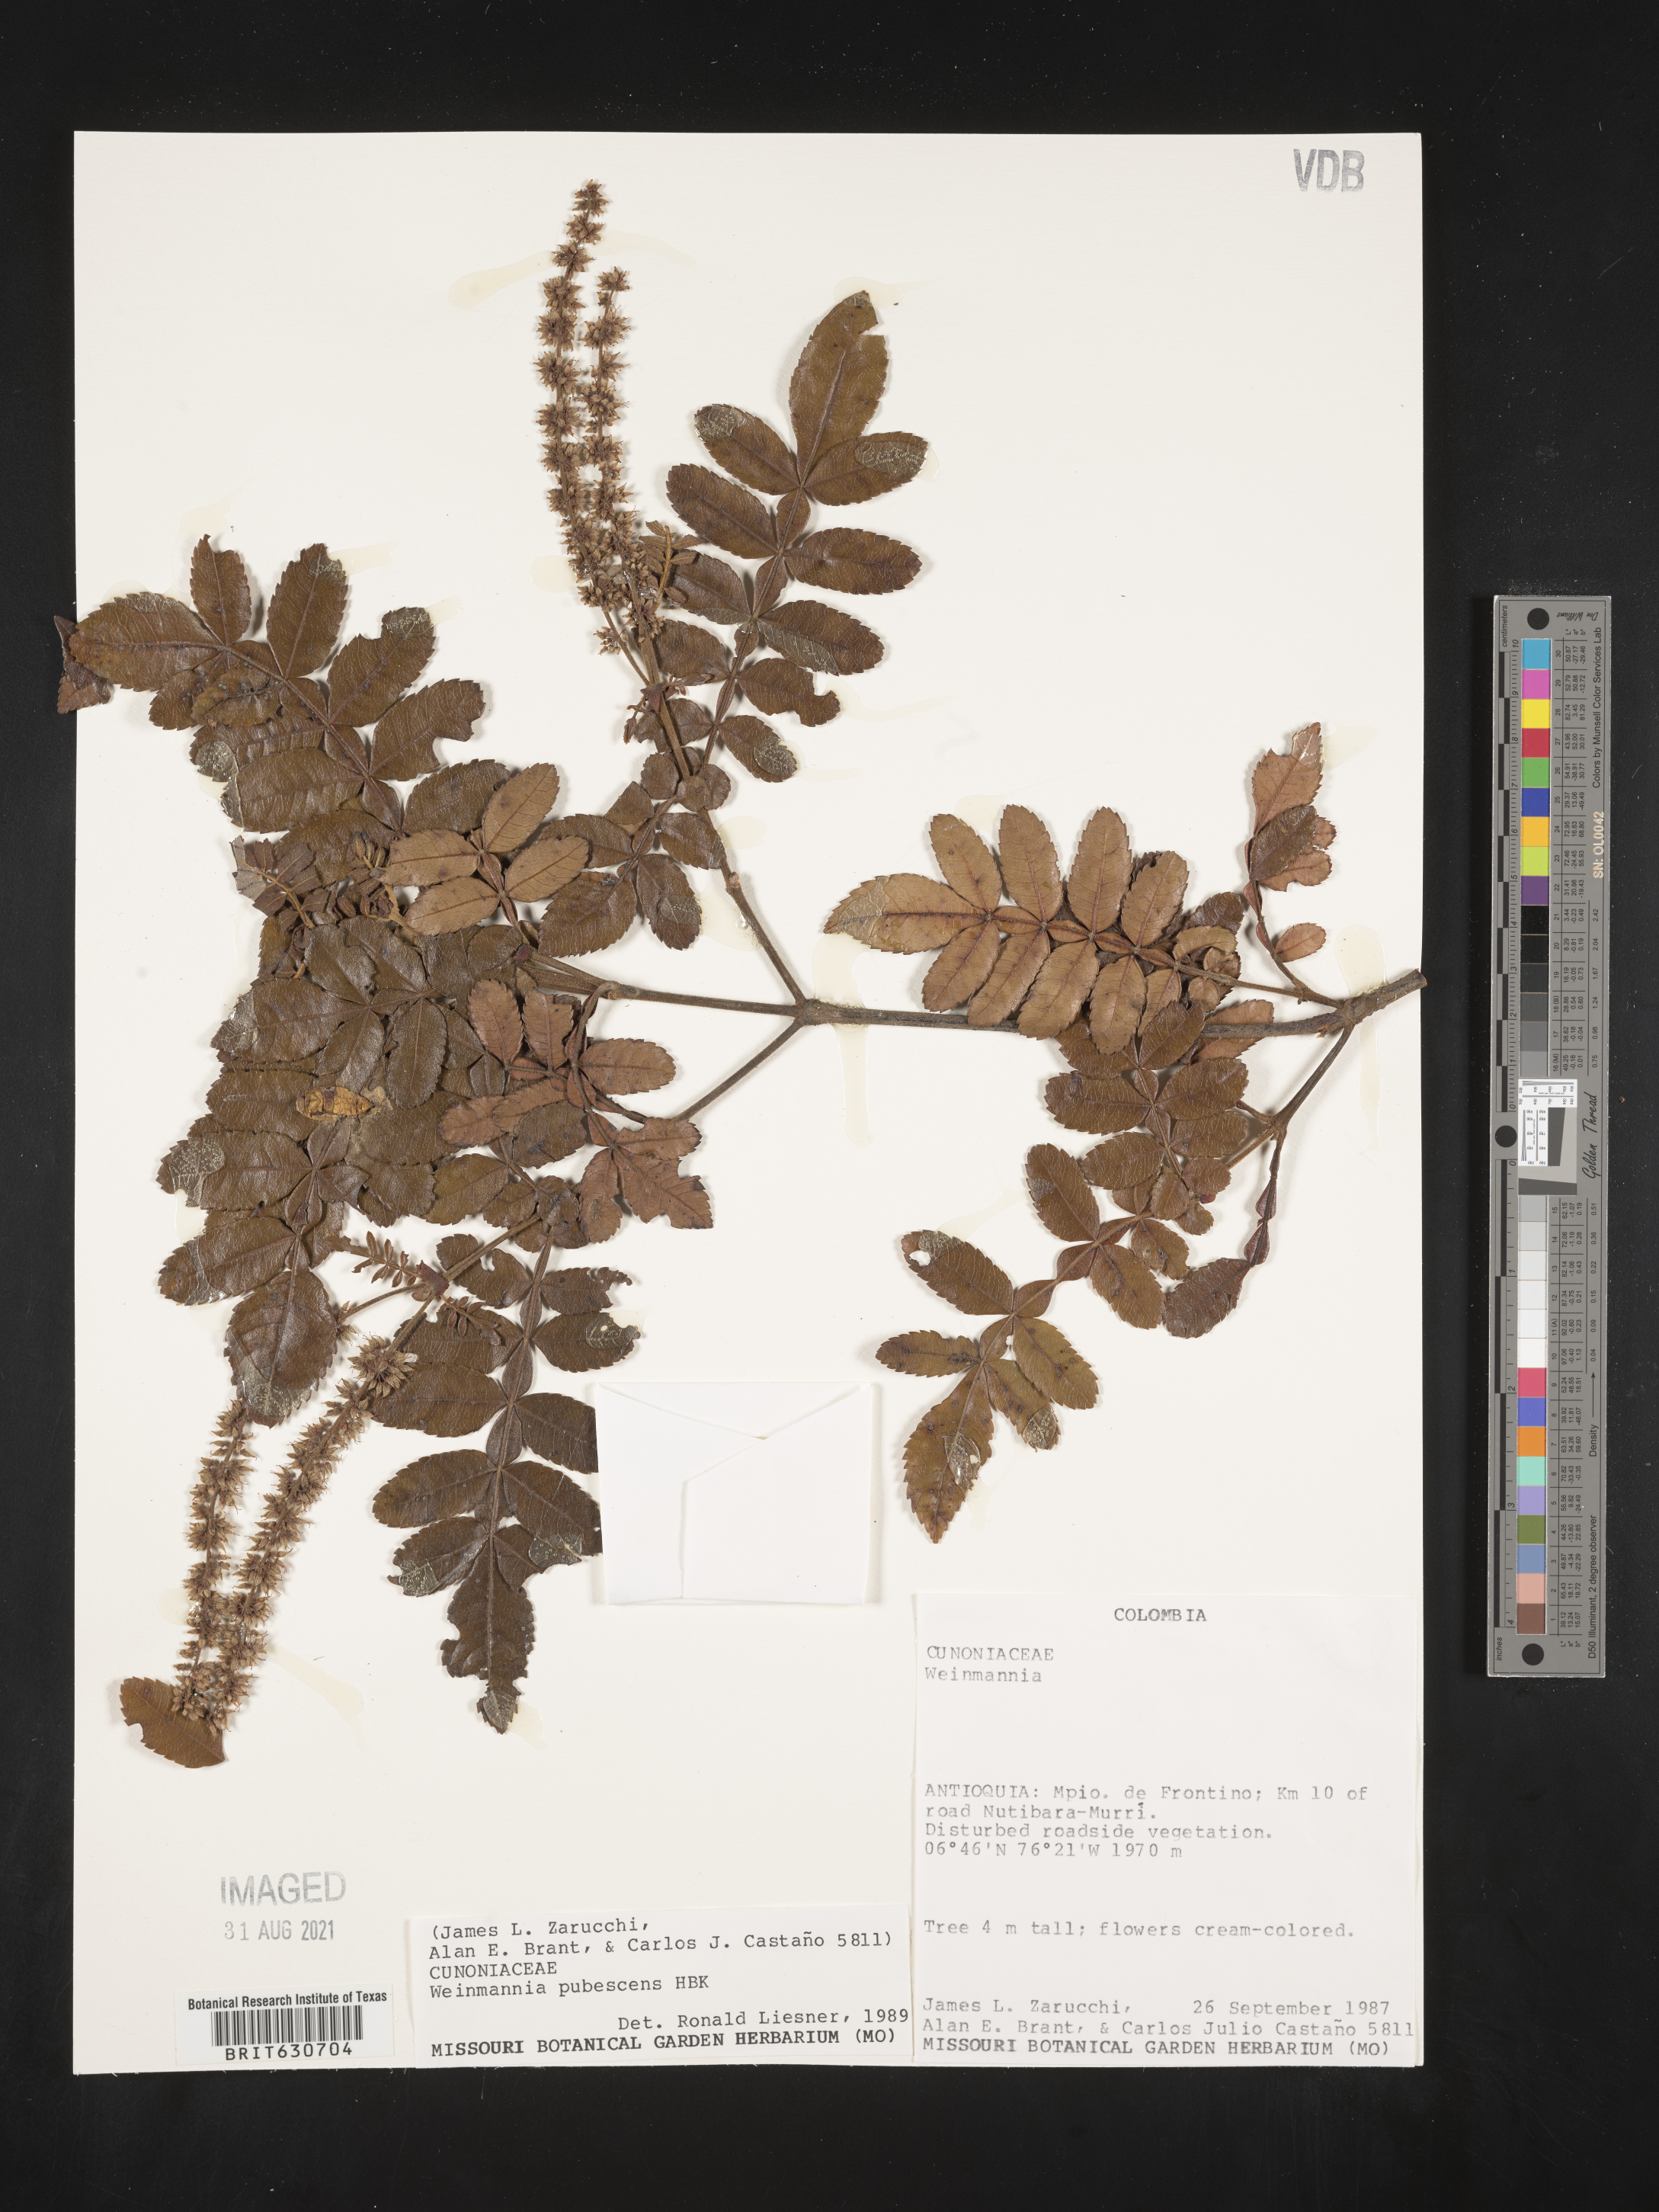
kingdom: Plantae
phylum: Tracheophyta
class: Magnoliopsida
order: Oxalidales
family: Cunoniaceae
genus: Weinmannia
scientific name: Weinmannia reticulata
